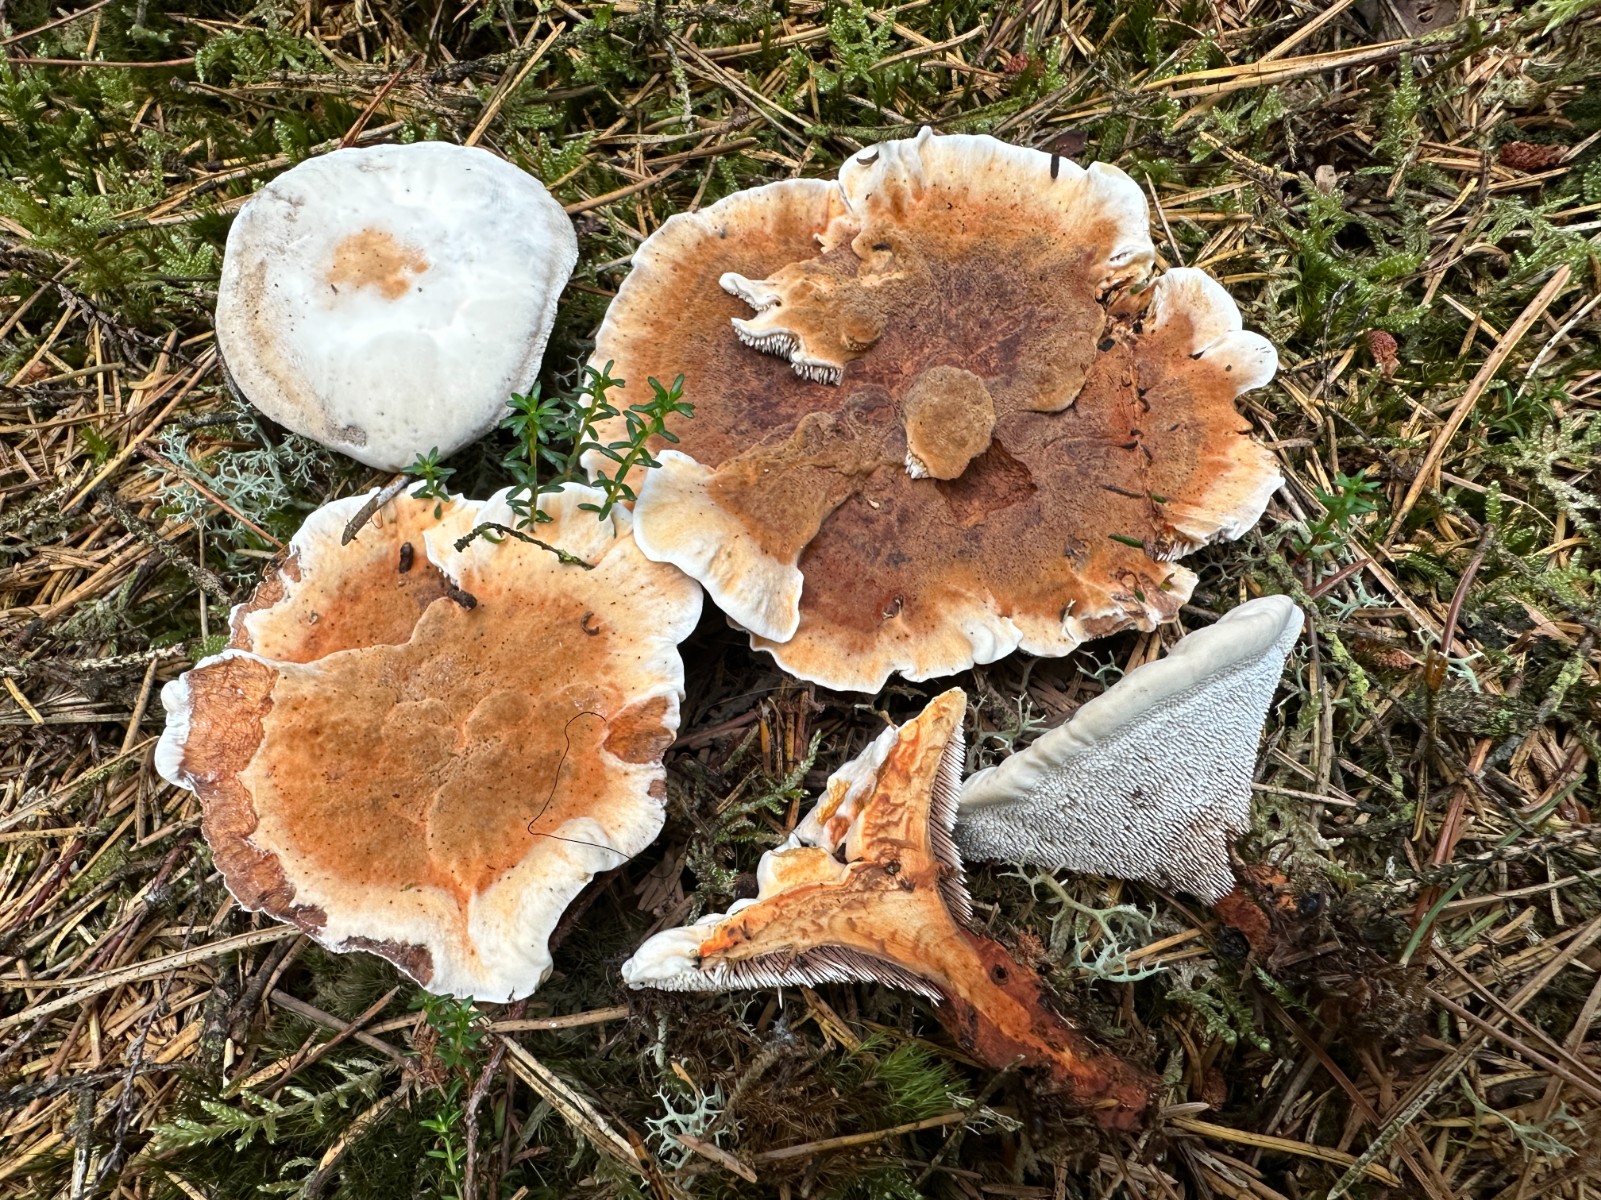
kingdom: Fungi
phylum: Basidiomycota
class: Agaricomycetes
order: Thelephorales
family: Bankeraceae
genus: Hydnellum
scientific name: Hydnellum aurantiacum
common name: orange korkpigsvamp
